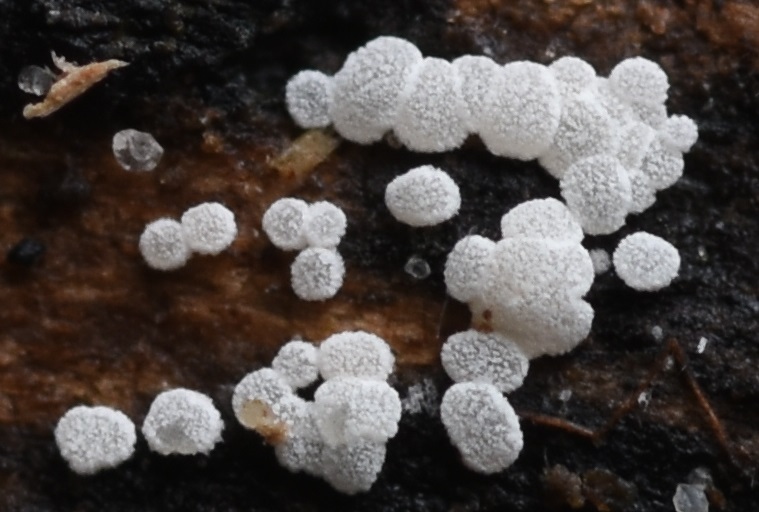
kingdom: Fungi
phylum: Ascomycota
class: Leotiomycetes
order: Helotiales
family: Hyaloscyphaceae
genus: Polydesmia
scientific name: Polydesmia pruinosa
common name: dunskive
